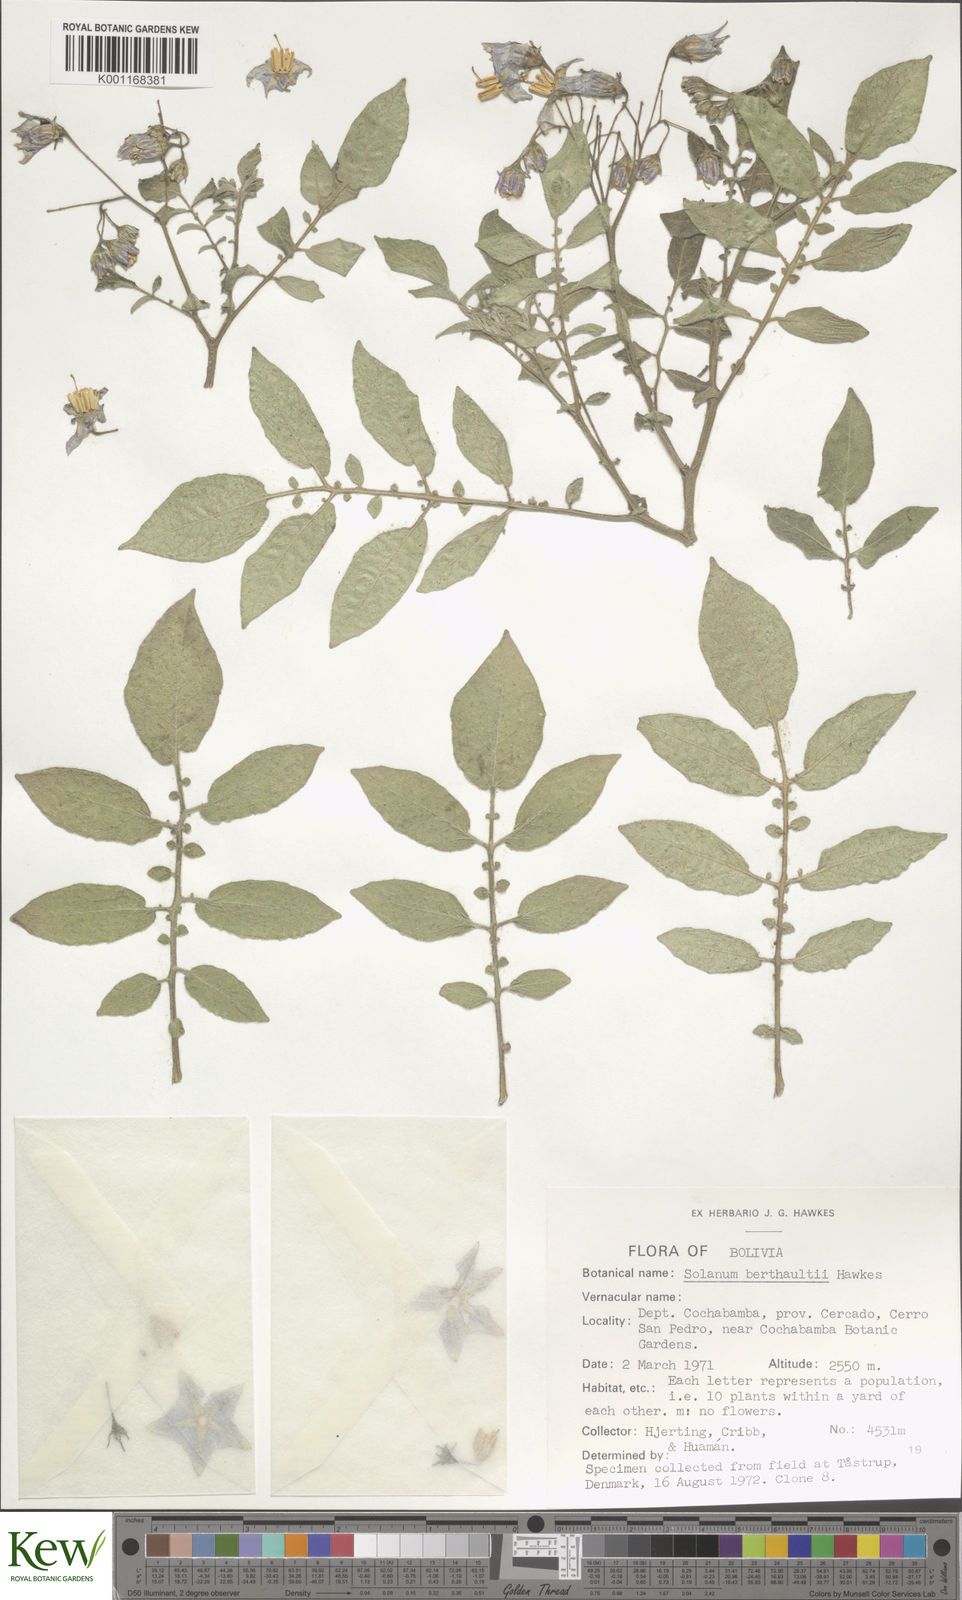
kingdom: Plantae
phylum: Tracheophyta
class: Magnoliopsida
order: Solanales
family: Solanaceae
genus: Solanum
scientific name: Solanum berthaultii
